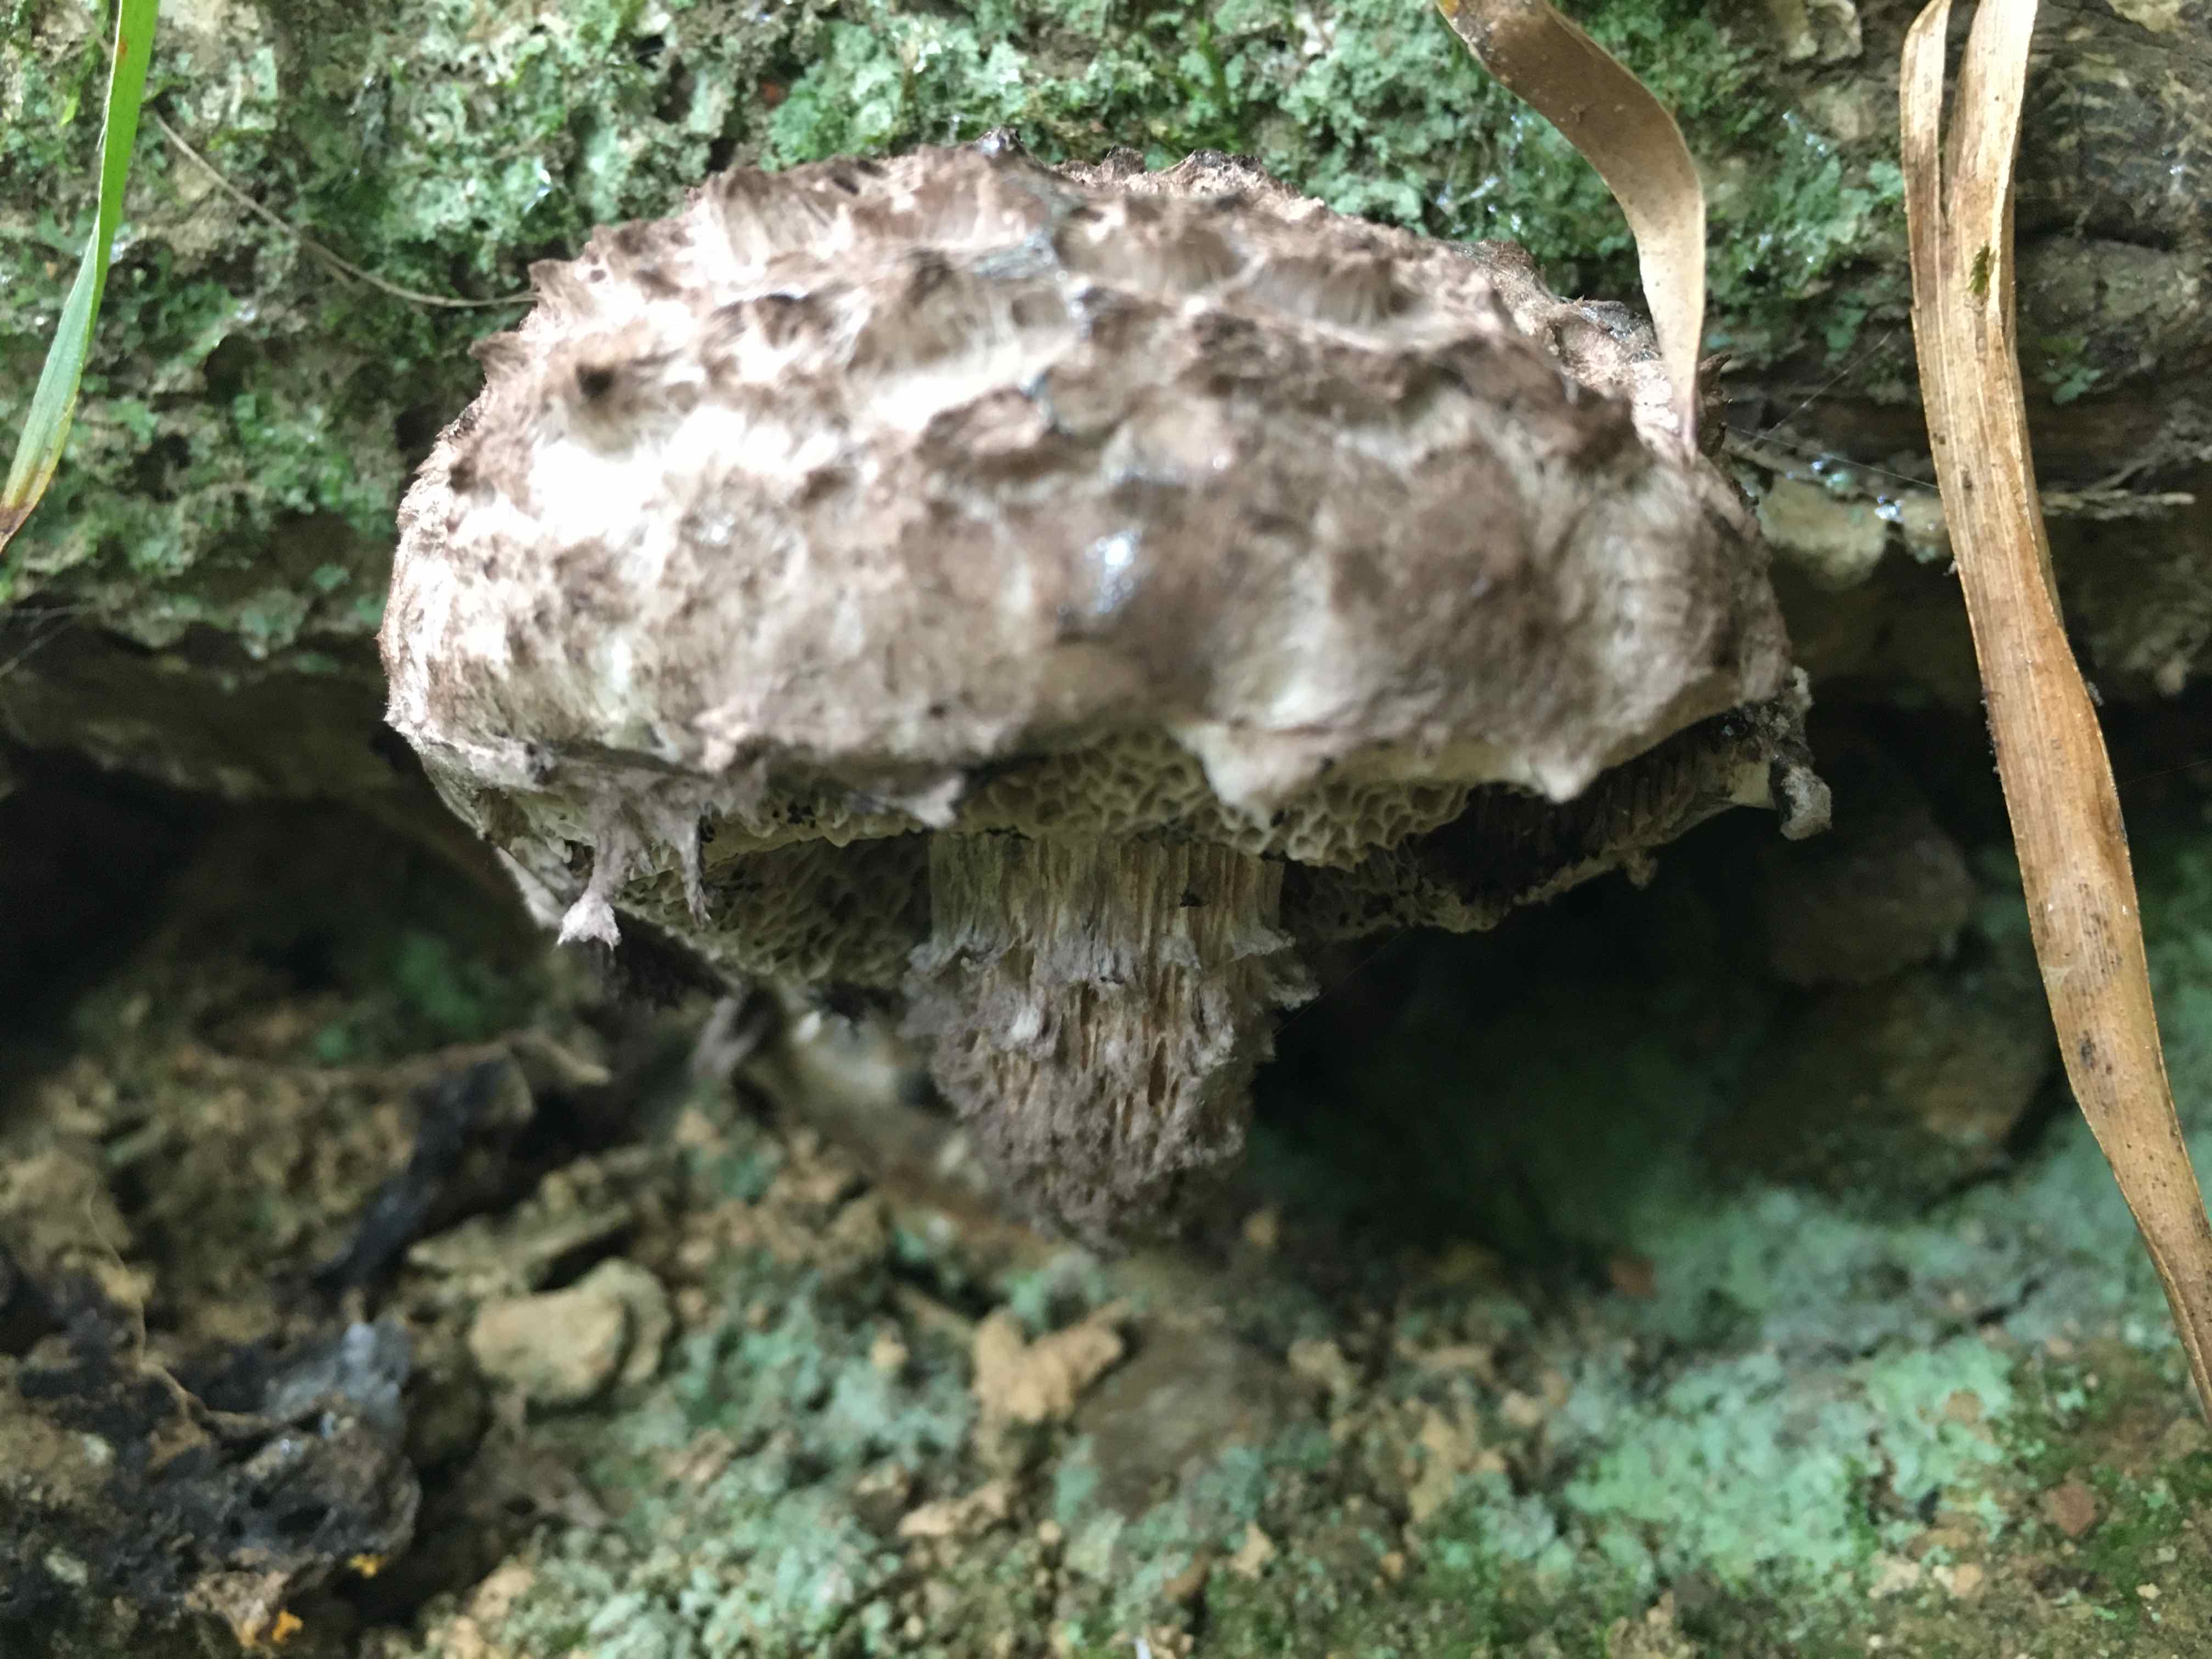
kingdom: Fungi
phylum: Basidiomycota
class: Agaricomycetes
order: Boletales
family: Boletaceae
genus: Strobilomyces
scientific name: Strobilomyces strobilaceus
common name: koglerørhat
